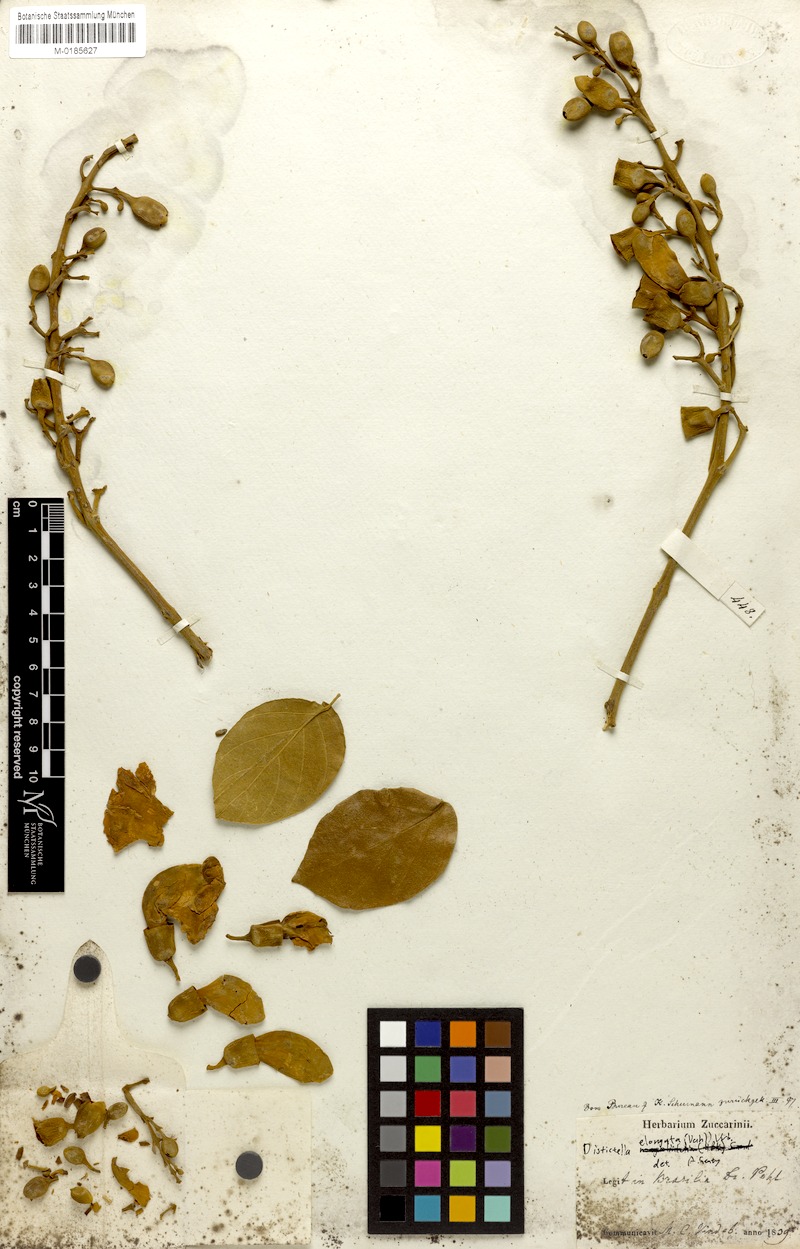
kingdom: Plantae
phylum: Tracheophyta
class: Magnoliopsida
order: Lamiales
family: Bignoniaceae
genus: Amphilophium
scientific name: Amphilophium elongatum
